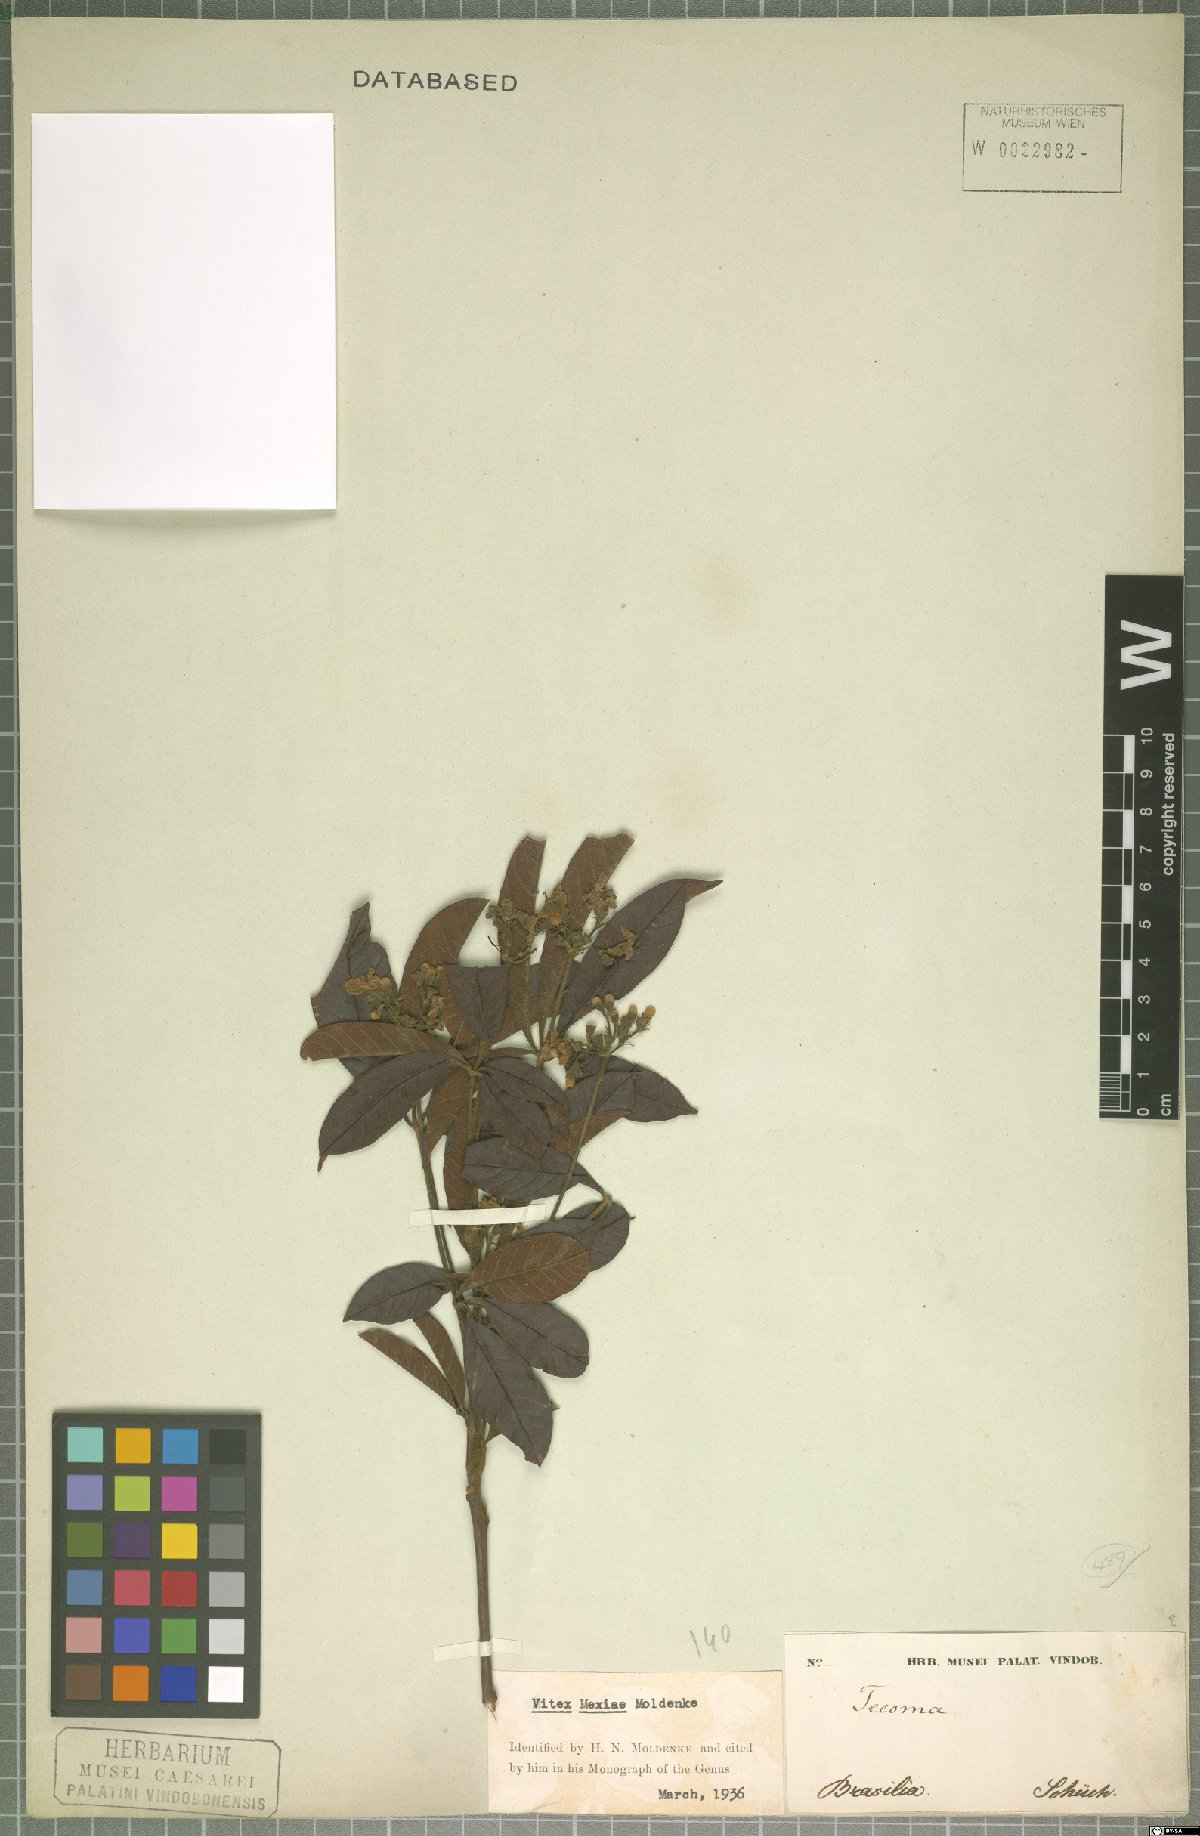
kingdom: Plantae
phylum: Tracheophyta
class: Magnoliopsida
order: Lamiales
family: Lamiaceae
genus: Vitex
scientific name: Vitex sellowiana
